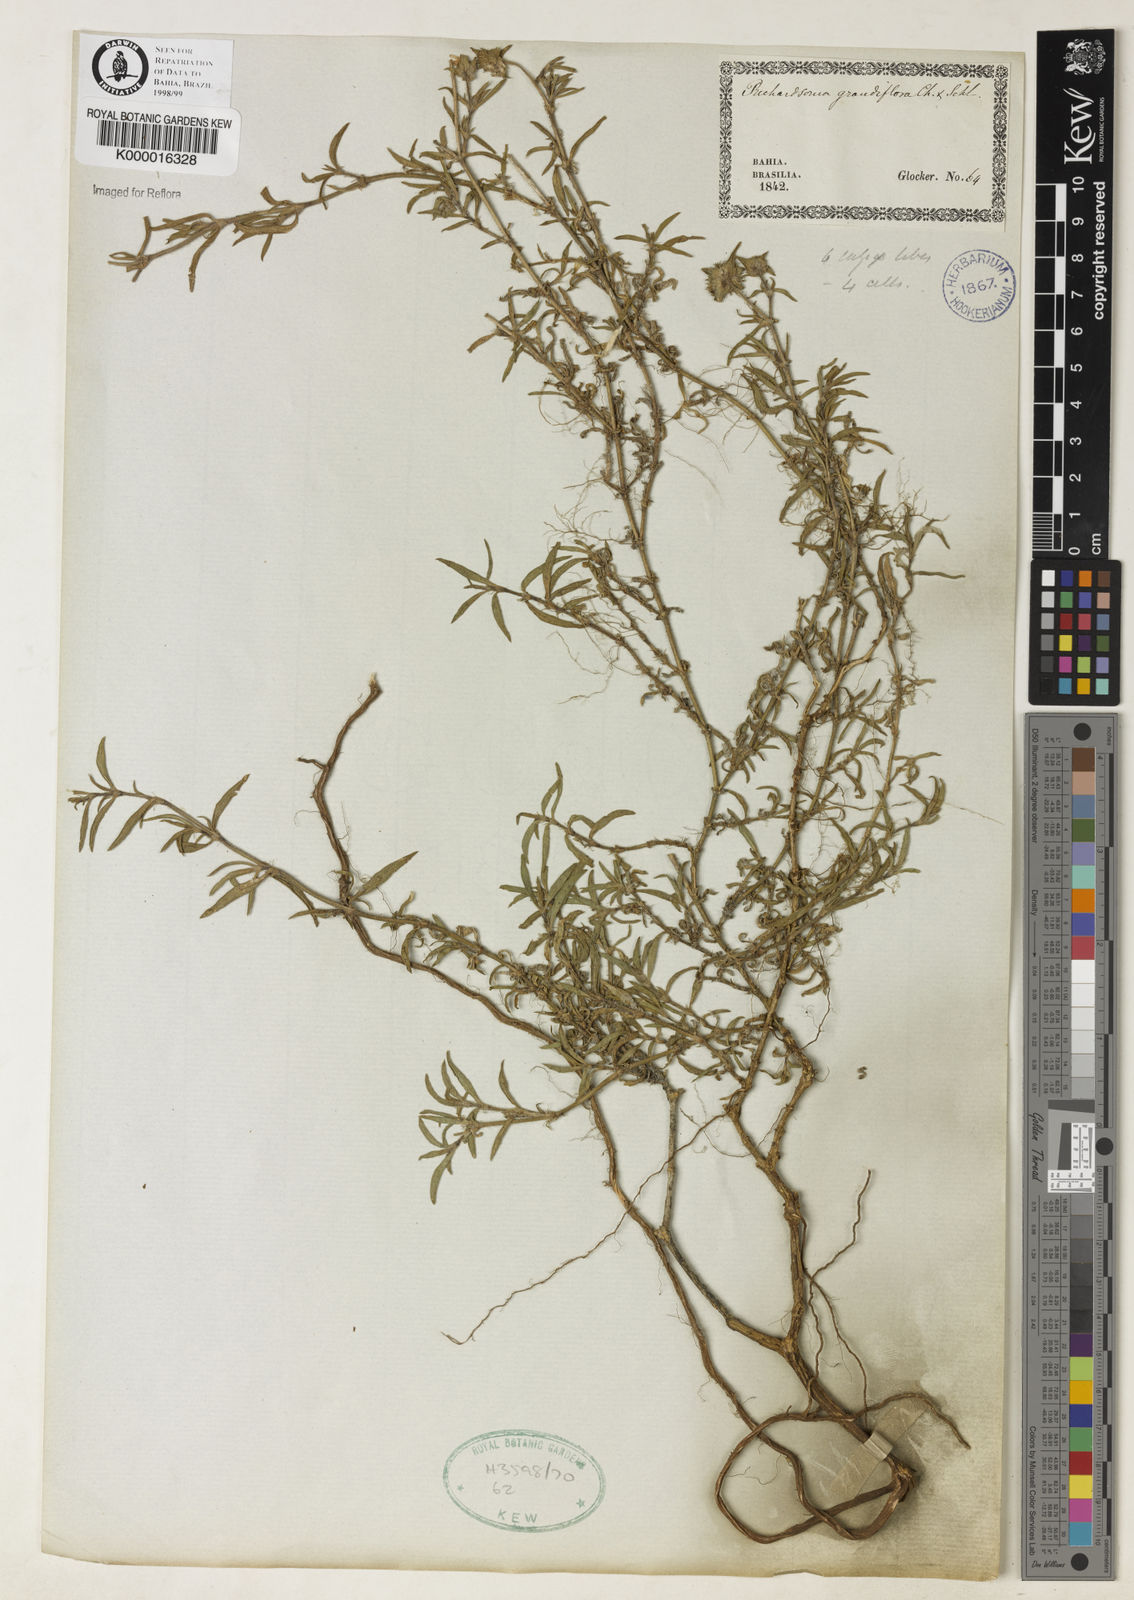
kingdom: Plantae
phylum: Tracheophyta
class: Magnoliopsida
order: Gentianales
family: Rubiaceae
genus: Richardia
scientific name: Richardia grandiflora
